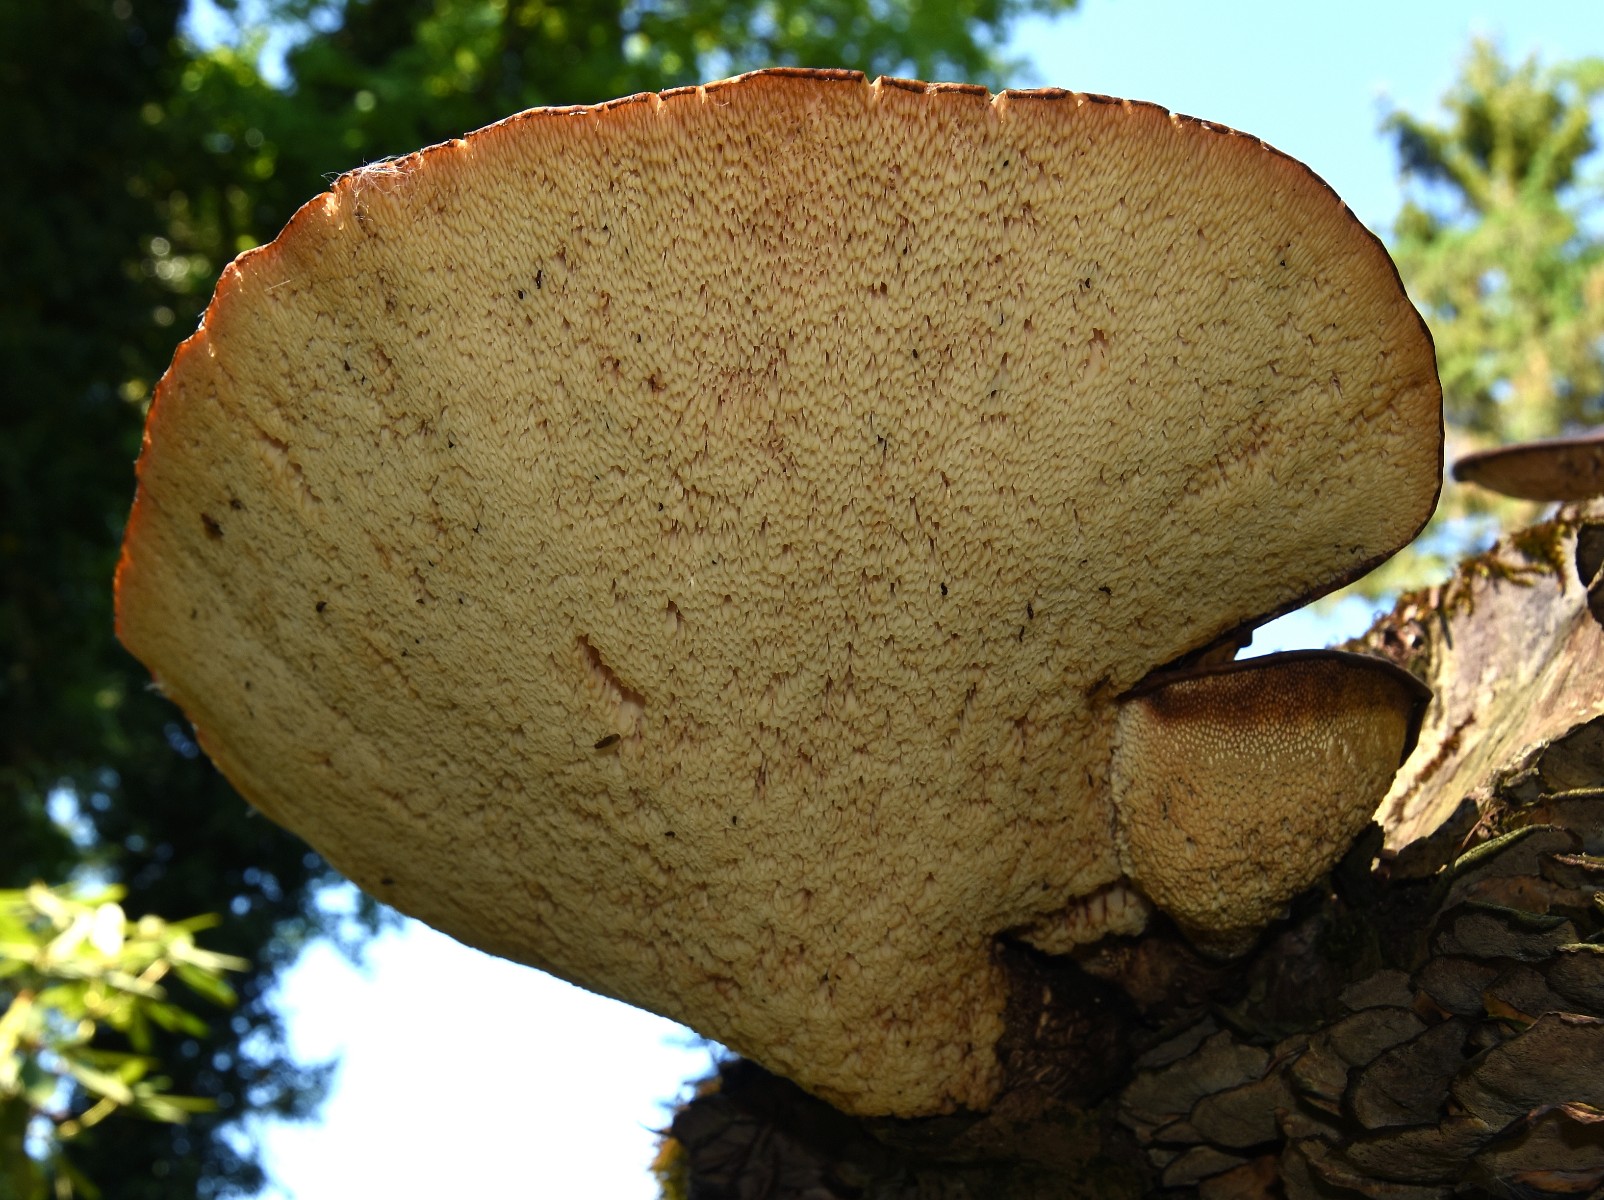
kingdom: Fungi
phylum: Basidiomycota
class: Agaricomycetes
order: Polyporales
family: Polyporaceae
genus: Cerioporus
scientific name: Cerioporus squamosus
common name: skællet stilkporesvamp
